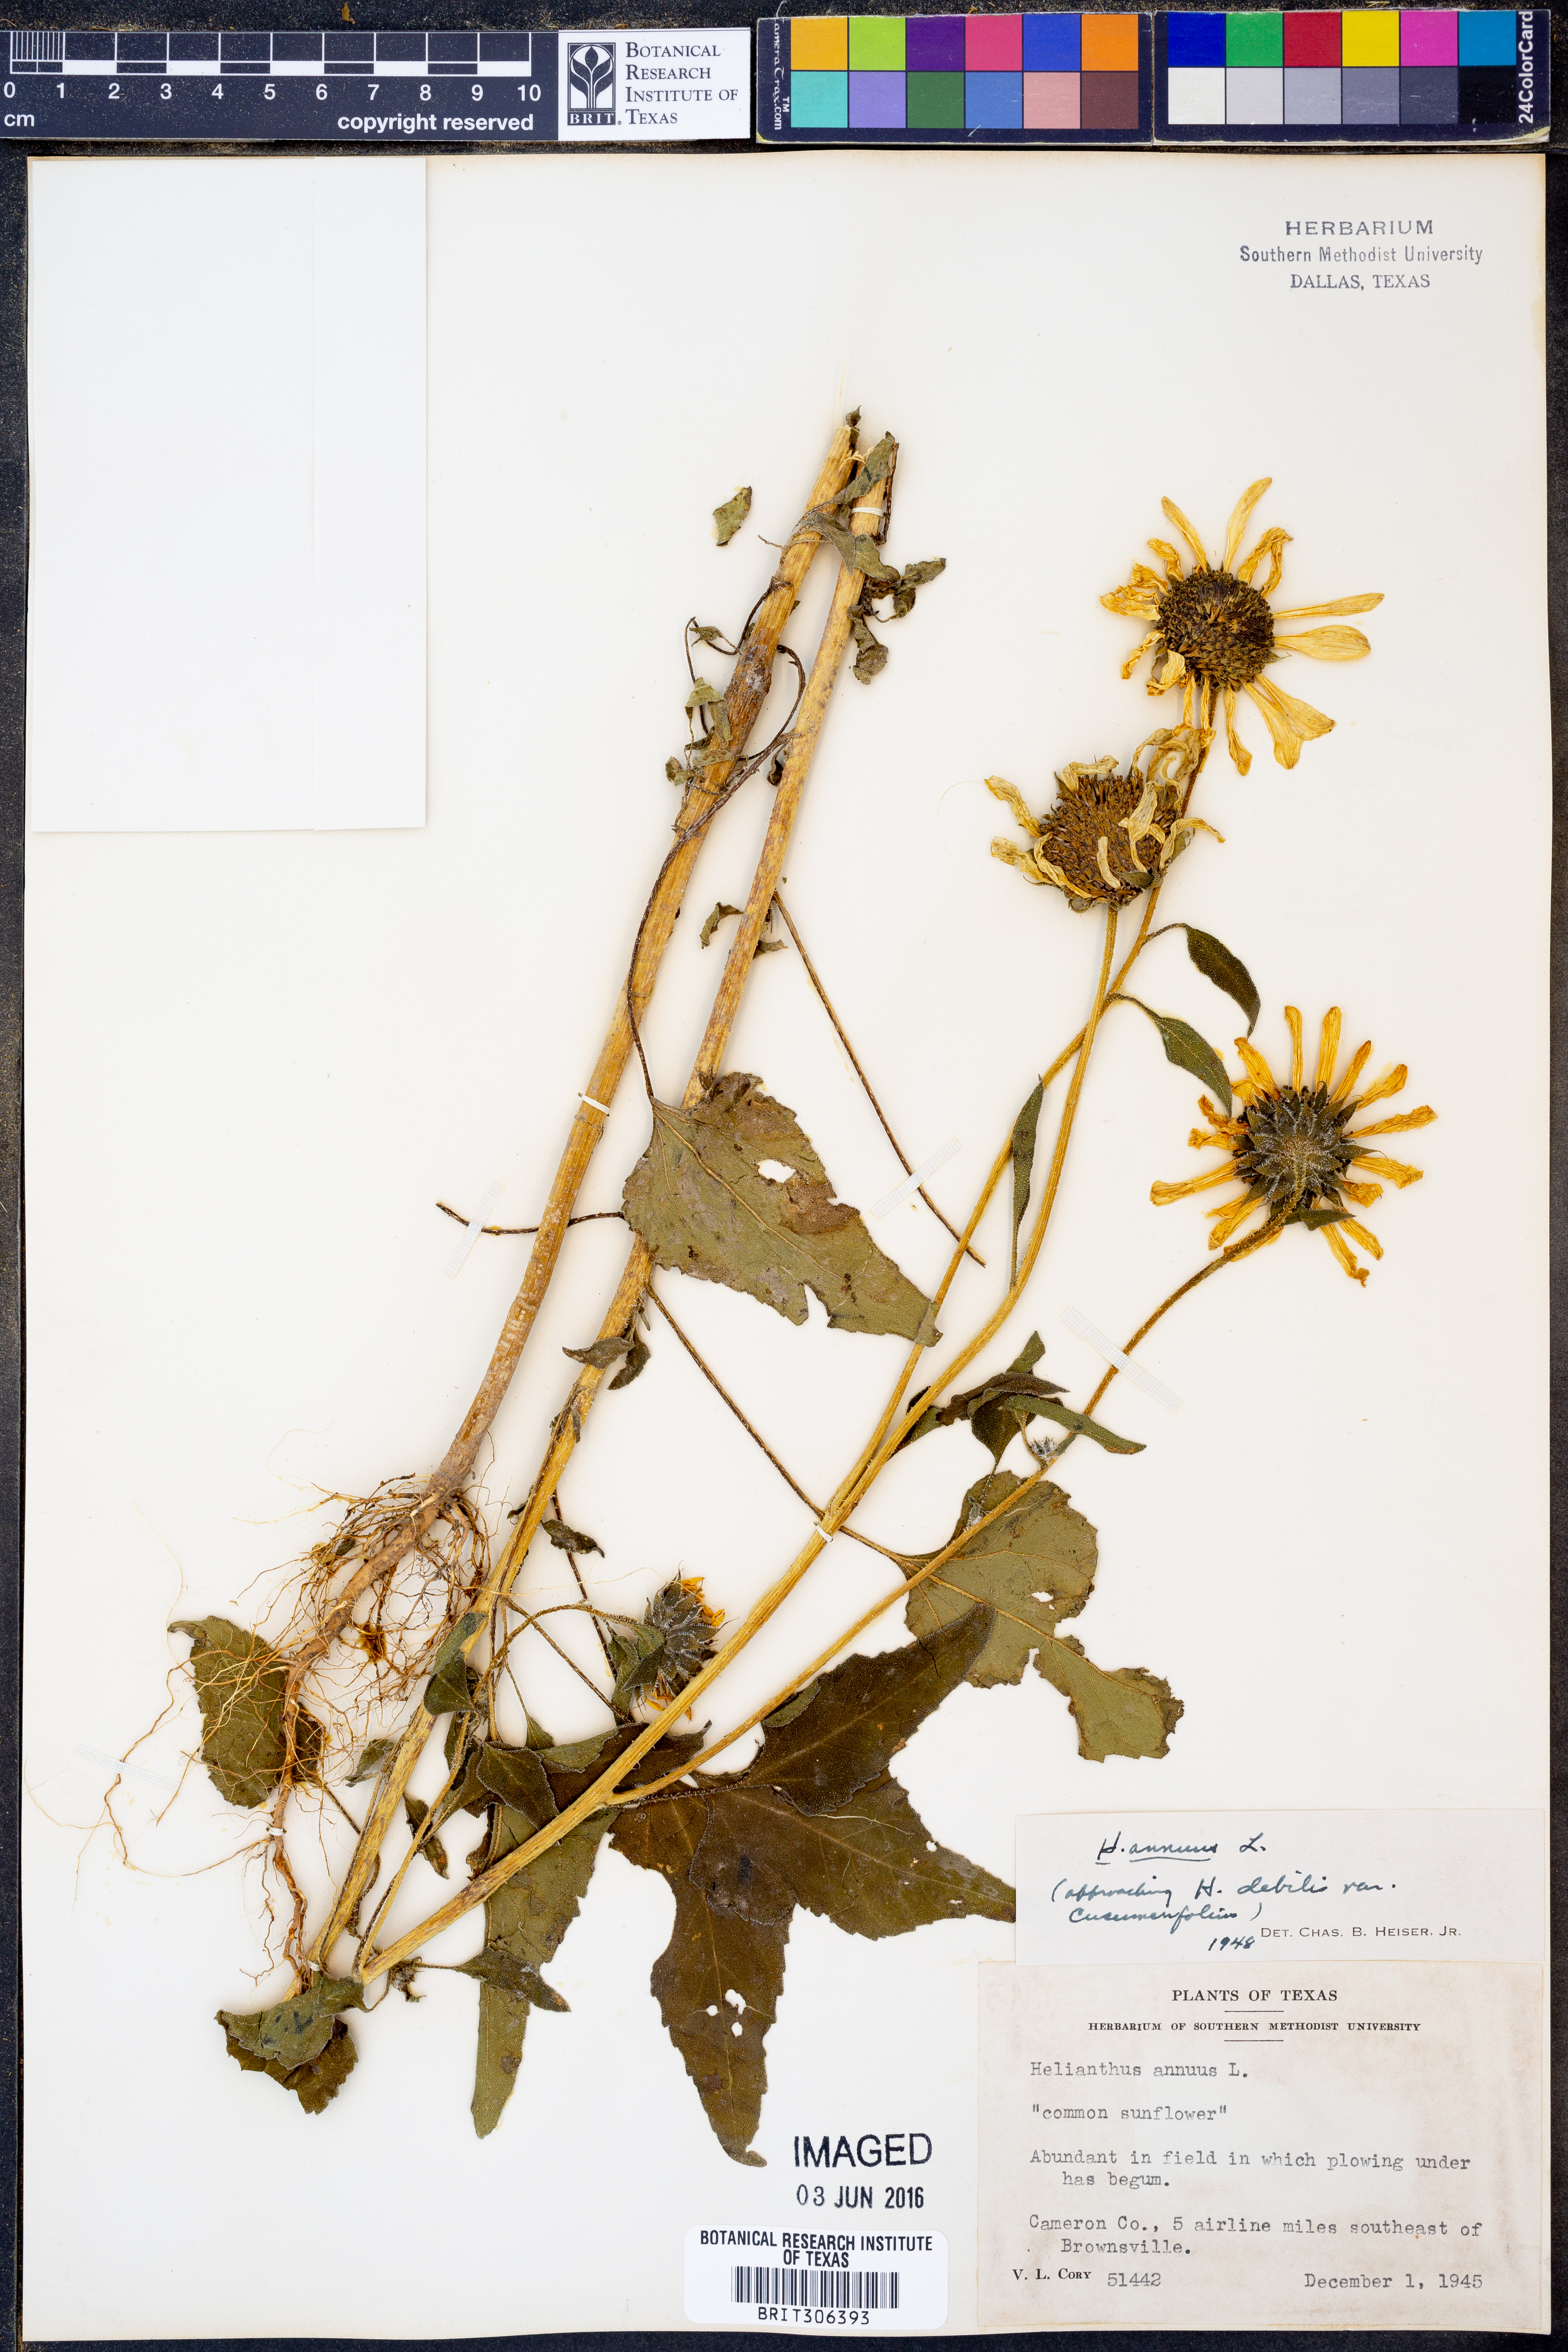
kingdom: Plantae
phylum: Tracheophyta
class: Magnoliopsida
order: Asterales
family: Asteraceae
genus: Helianthus
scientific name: Helianthus annuus
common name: Sunflower
